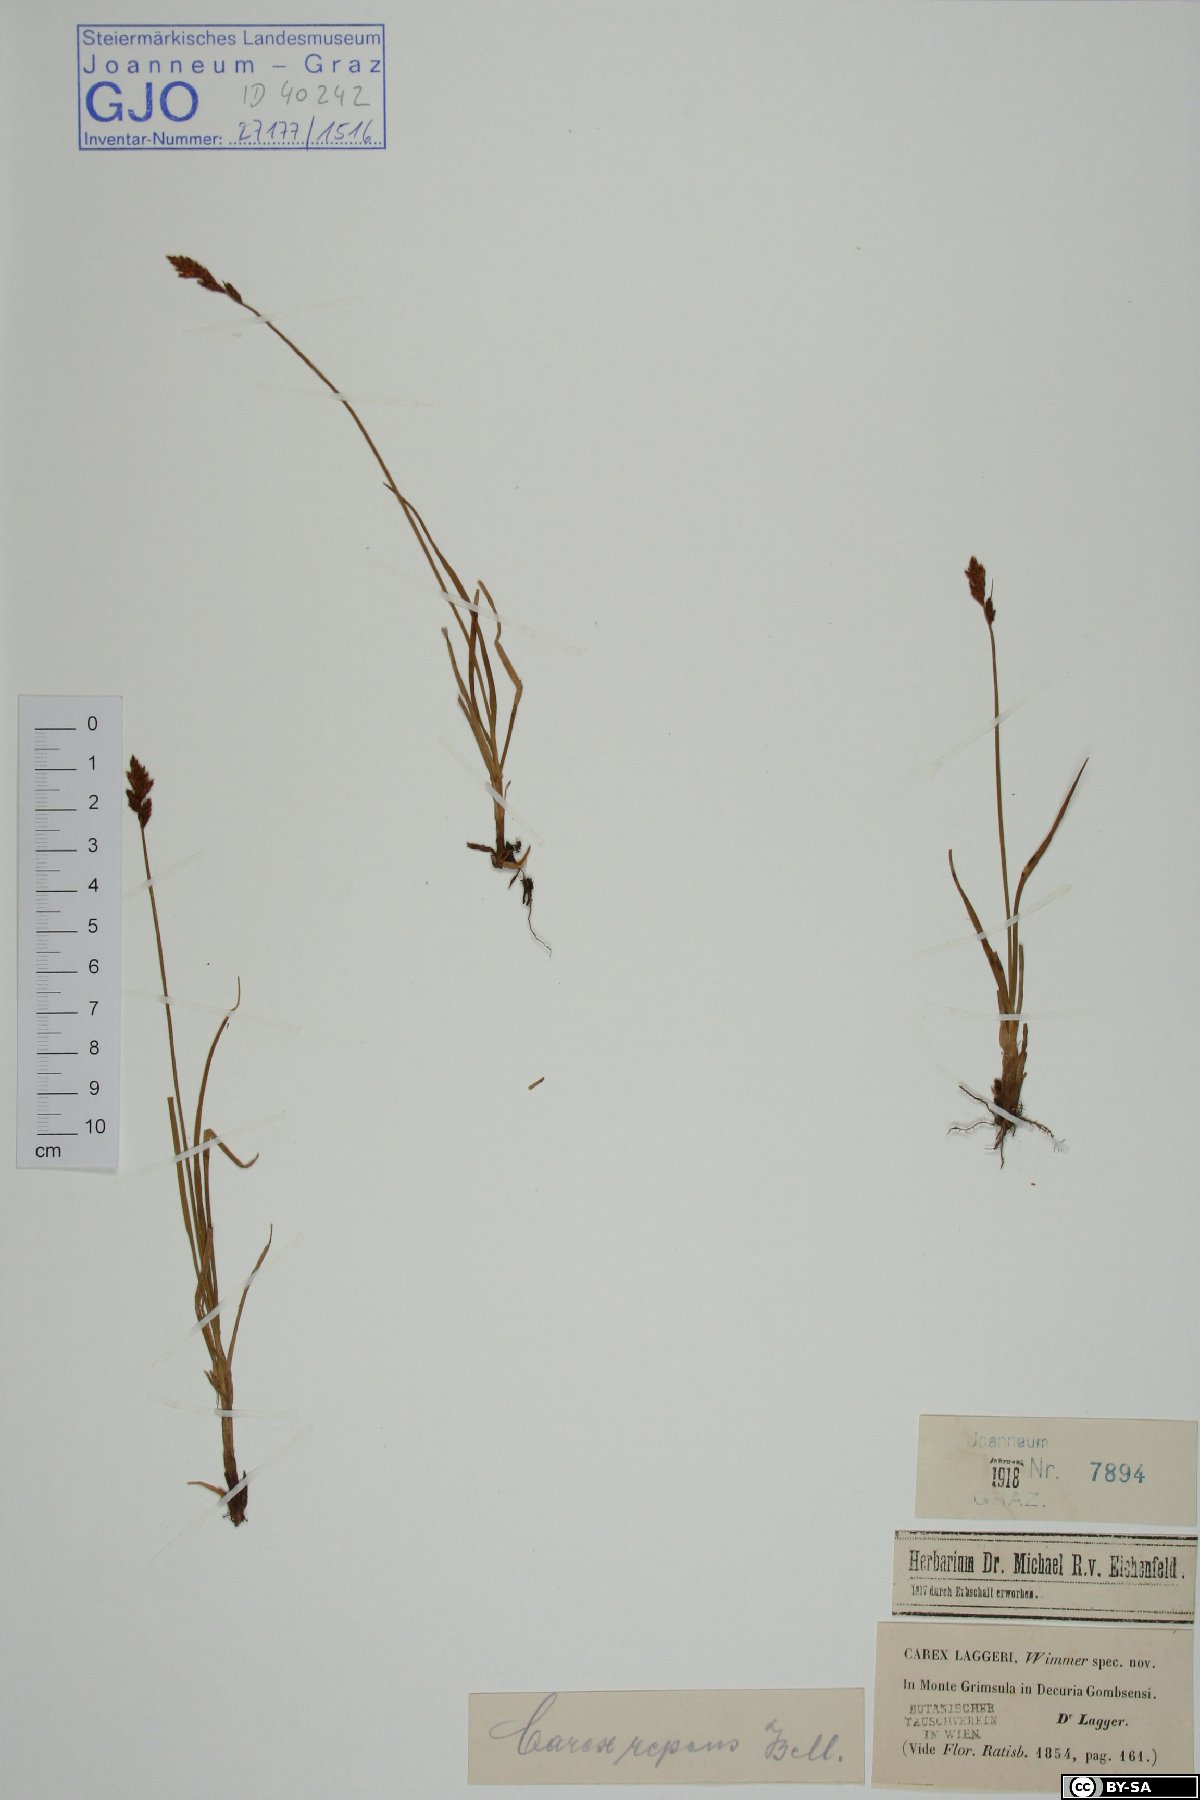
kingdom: Plantae
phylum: Tracheophyta
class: Liliopsida
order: Poales
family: Cyperaceae
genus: Carex
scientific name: Carex laggeri
